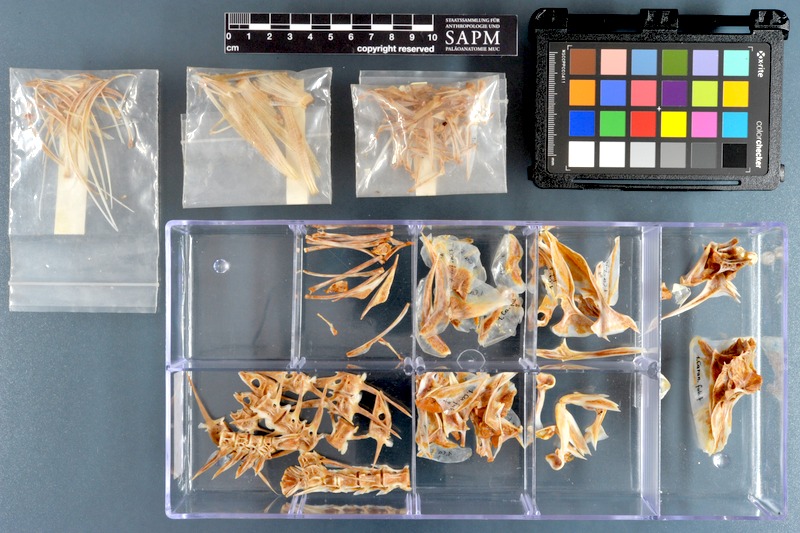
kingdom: Animalia
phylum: Chordata
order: Perciformes
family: Carangidae
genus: Carangoides
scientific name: Carangoides fulvoguttatus
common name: Yellowspotted trevally
